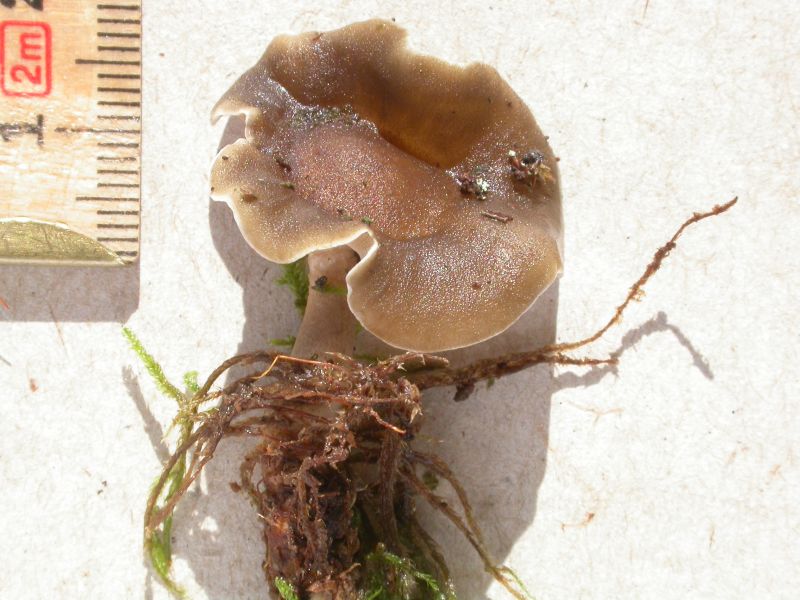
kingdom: Fungi
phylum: Basidiomycota
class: Agaricomycetes
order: Polyporales
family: Polyporaceae
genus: Lentinus
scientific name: Lentinus brumalis
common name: vinter-stilkporesvamp
